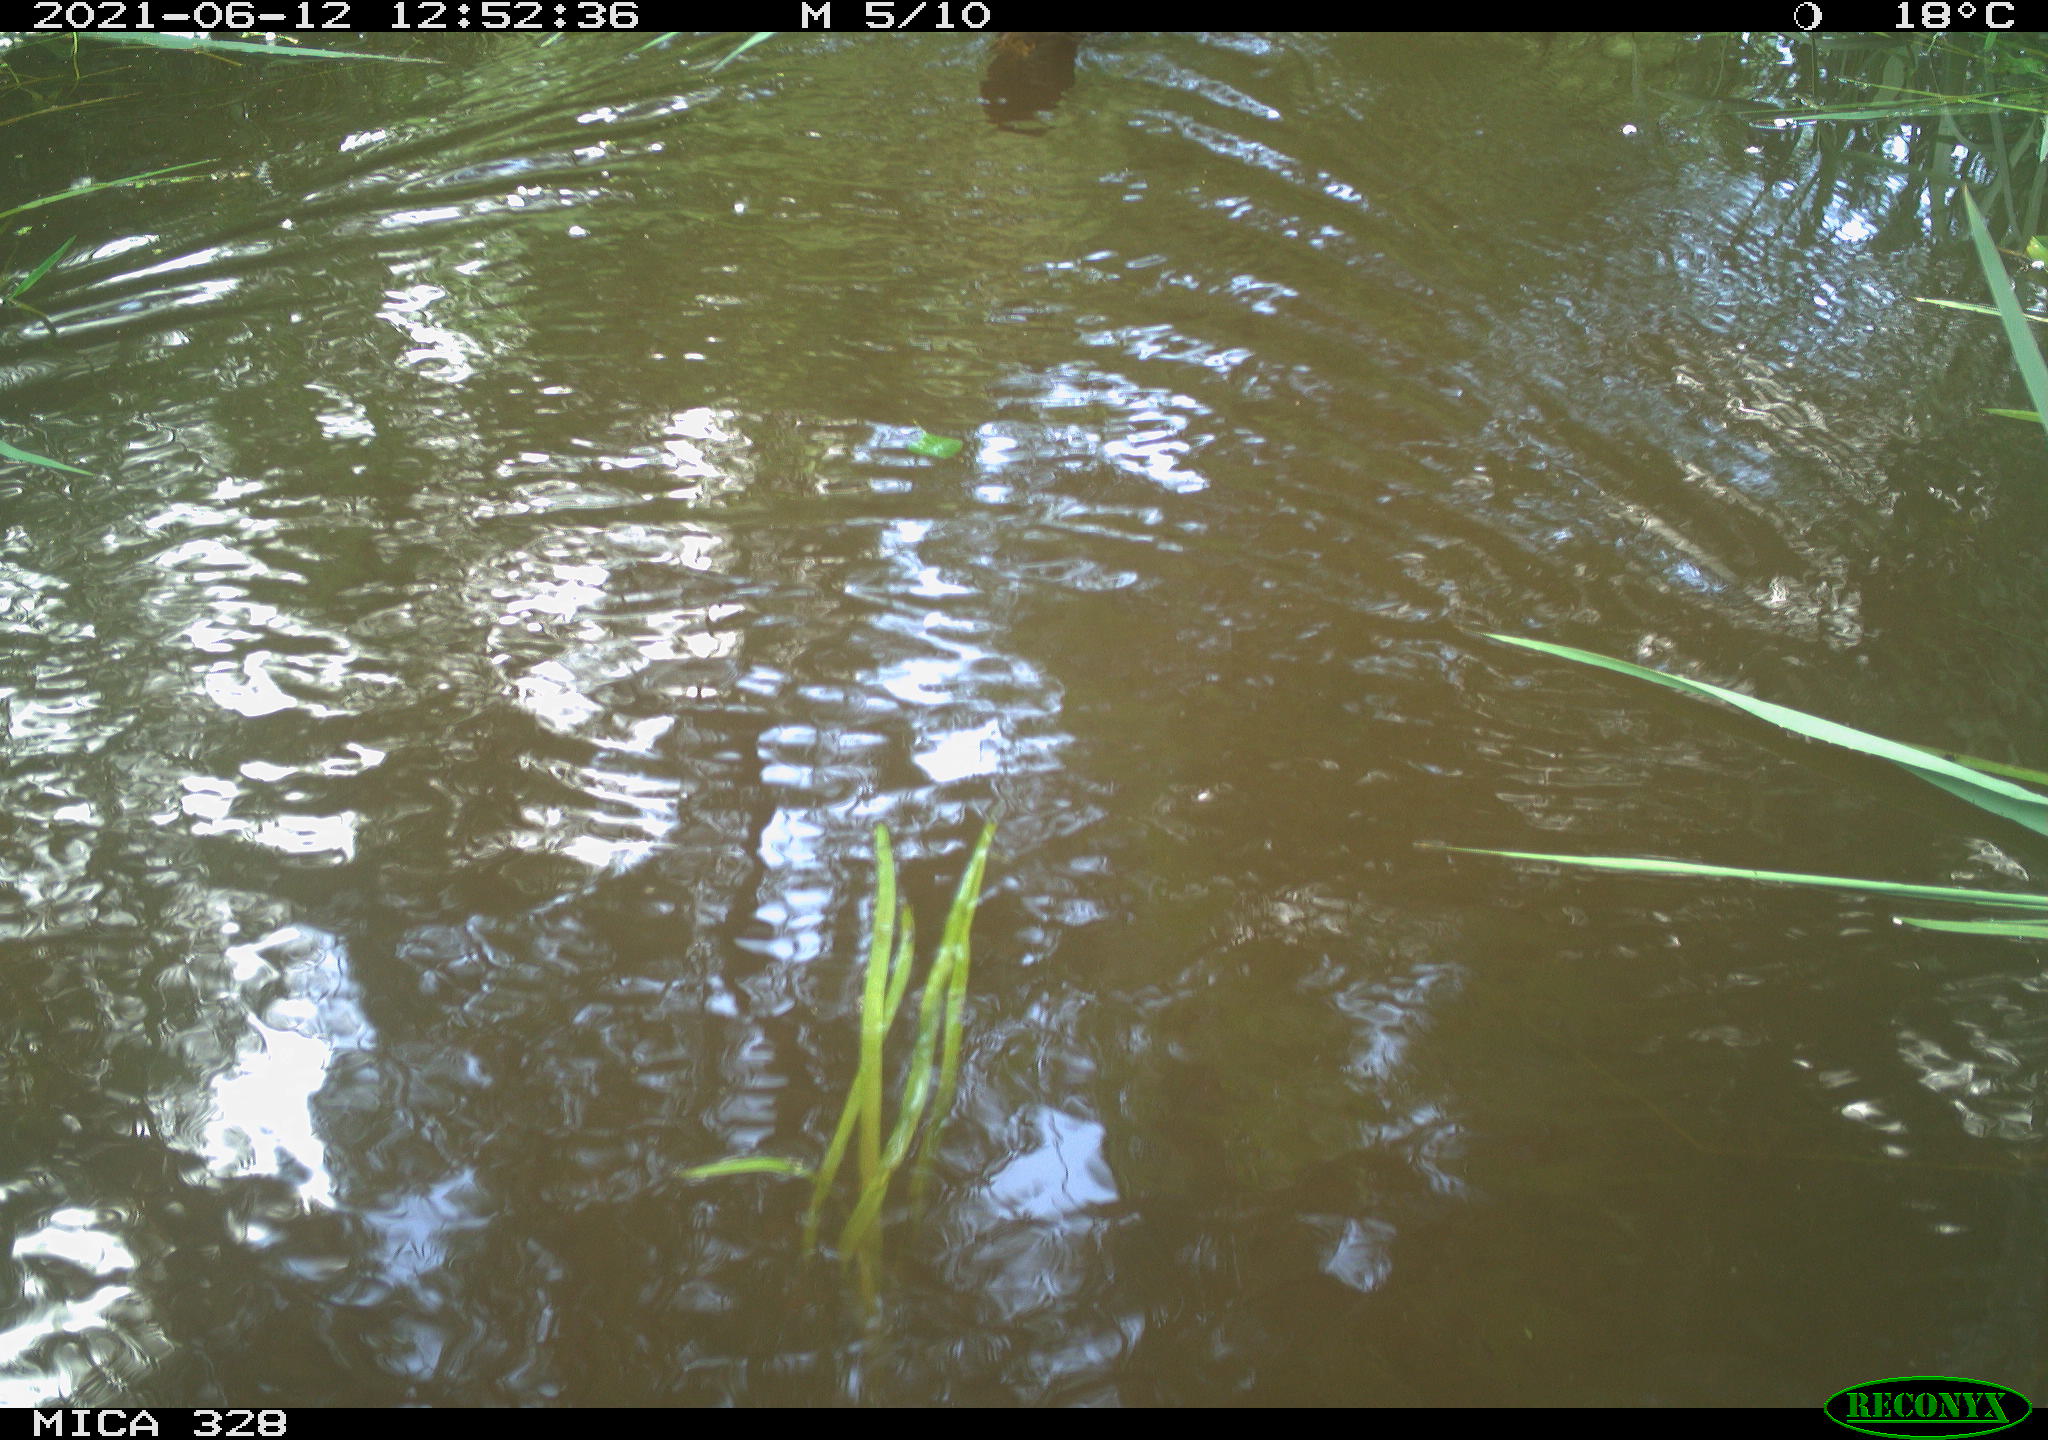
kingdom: Animalia
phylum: Chordata
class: Aves
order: Anseriformes
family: Anatidae
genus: Aix
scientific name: Aix galericulata
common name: Mandarin duck
